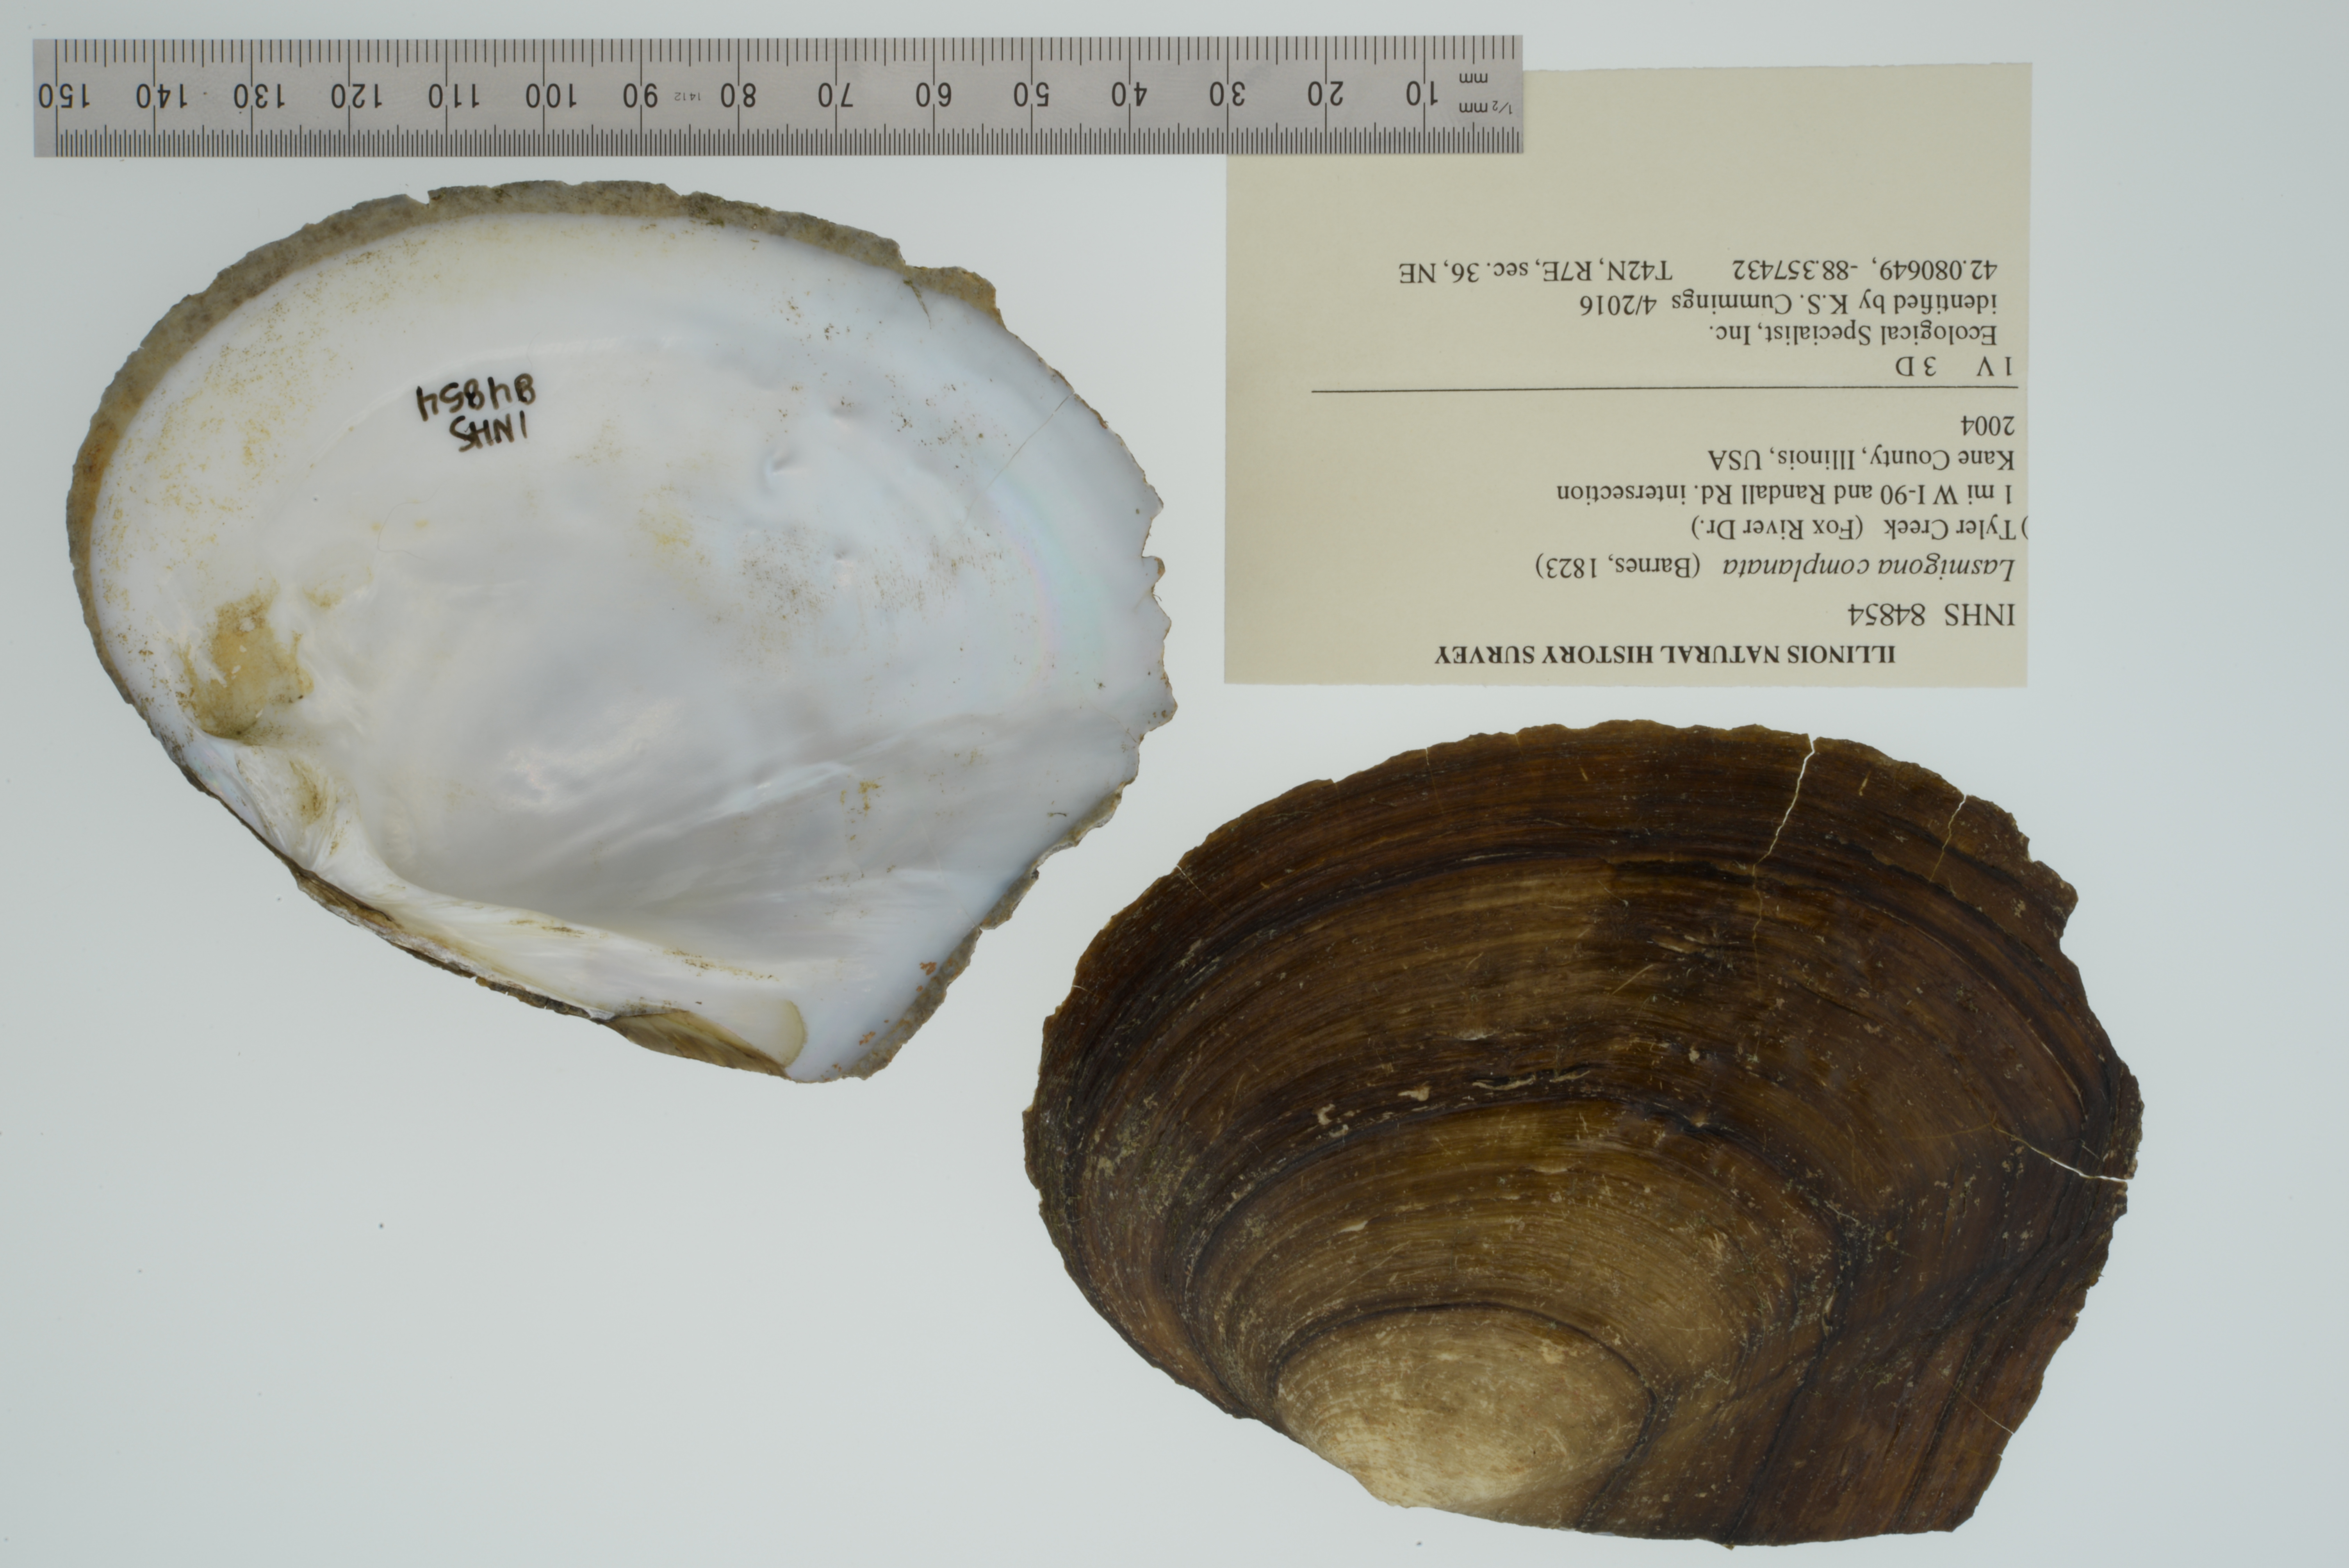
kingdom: Animalia
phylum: Mollusca
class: Bivalvia
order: Unionida
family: Unionidae
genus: Lasmigona
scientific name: Lasmigona complanata
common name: White heelsplitter
